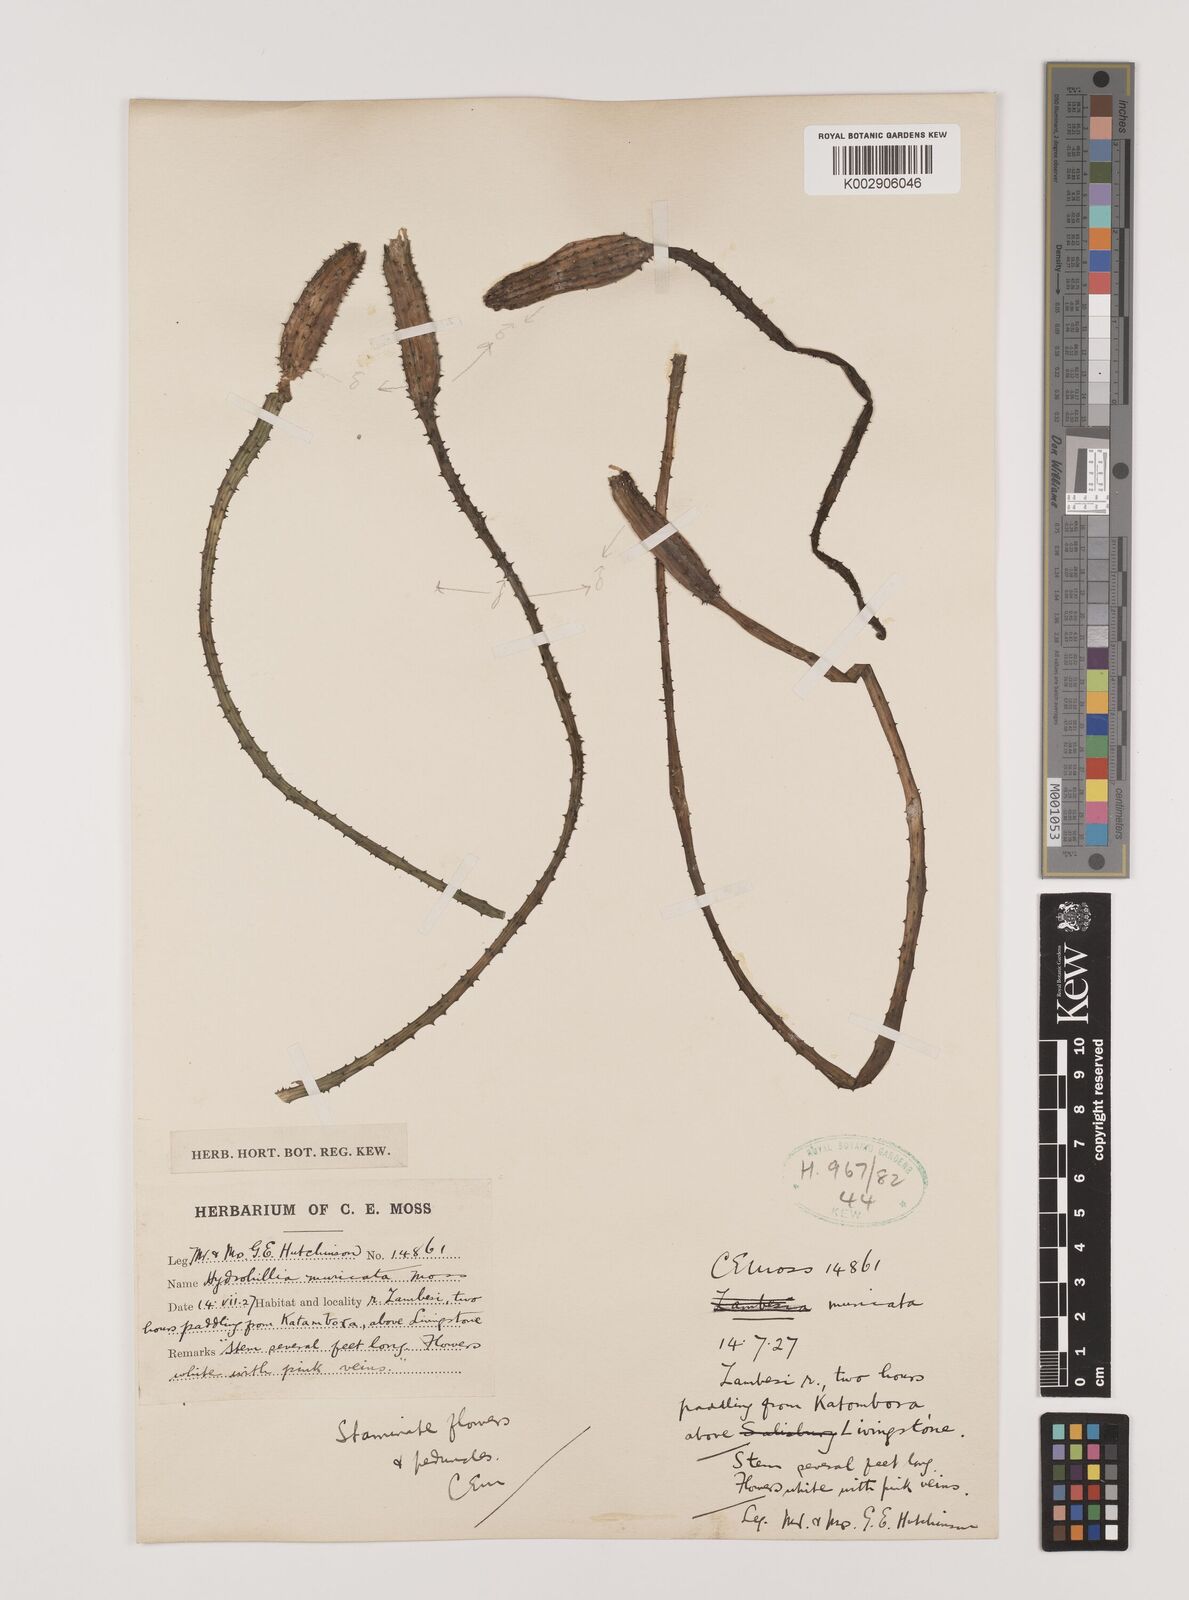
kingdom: Plantae
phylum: Tracheophyta
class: Liliopsida
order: Alismatales
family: Hydrocharitaceae
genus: Ottelia
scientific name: Ottelia muricata
